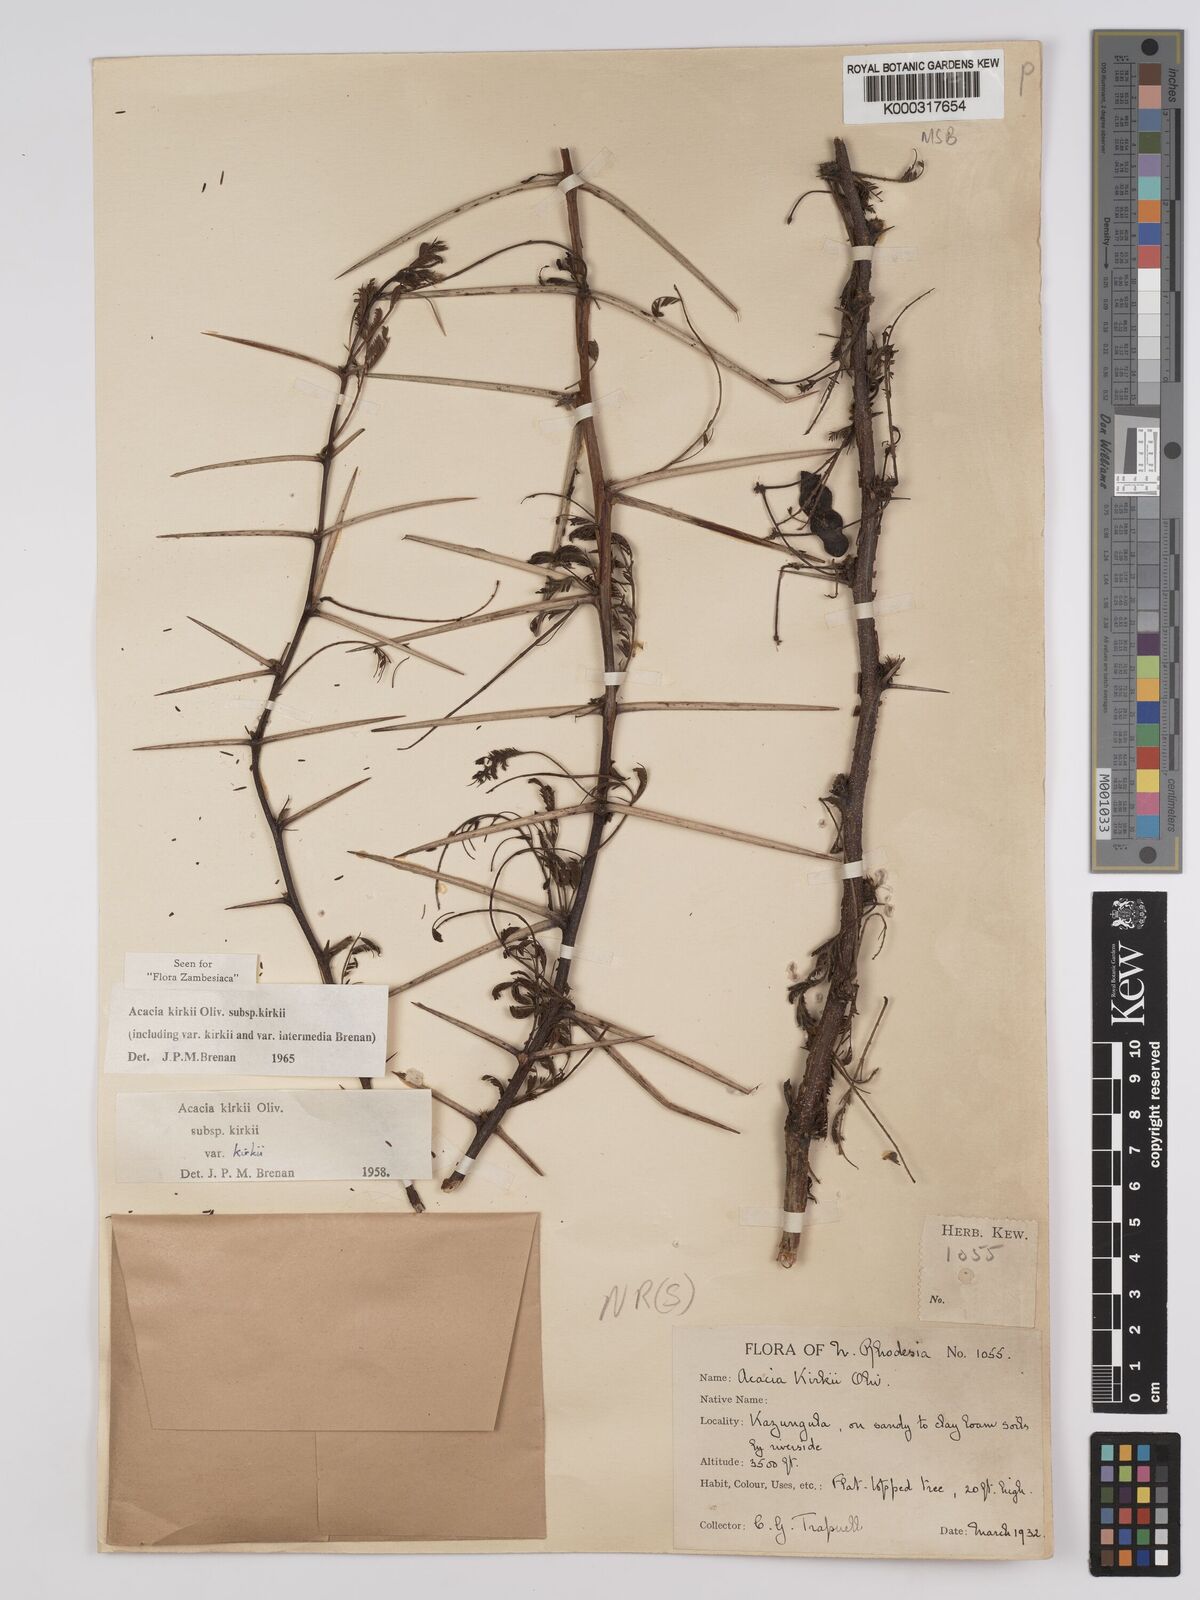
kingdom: Plantae
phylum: Tracheophyta
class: Magnoliopsida
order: Fabales
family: Fabaceae
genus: Vachellia
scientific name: Vachellia kirkii
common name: Flood-plain acacia
